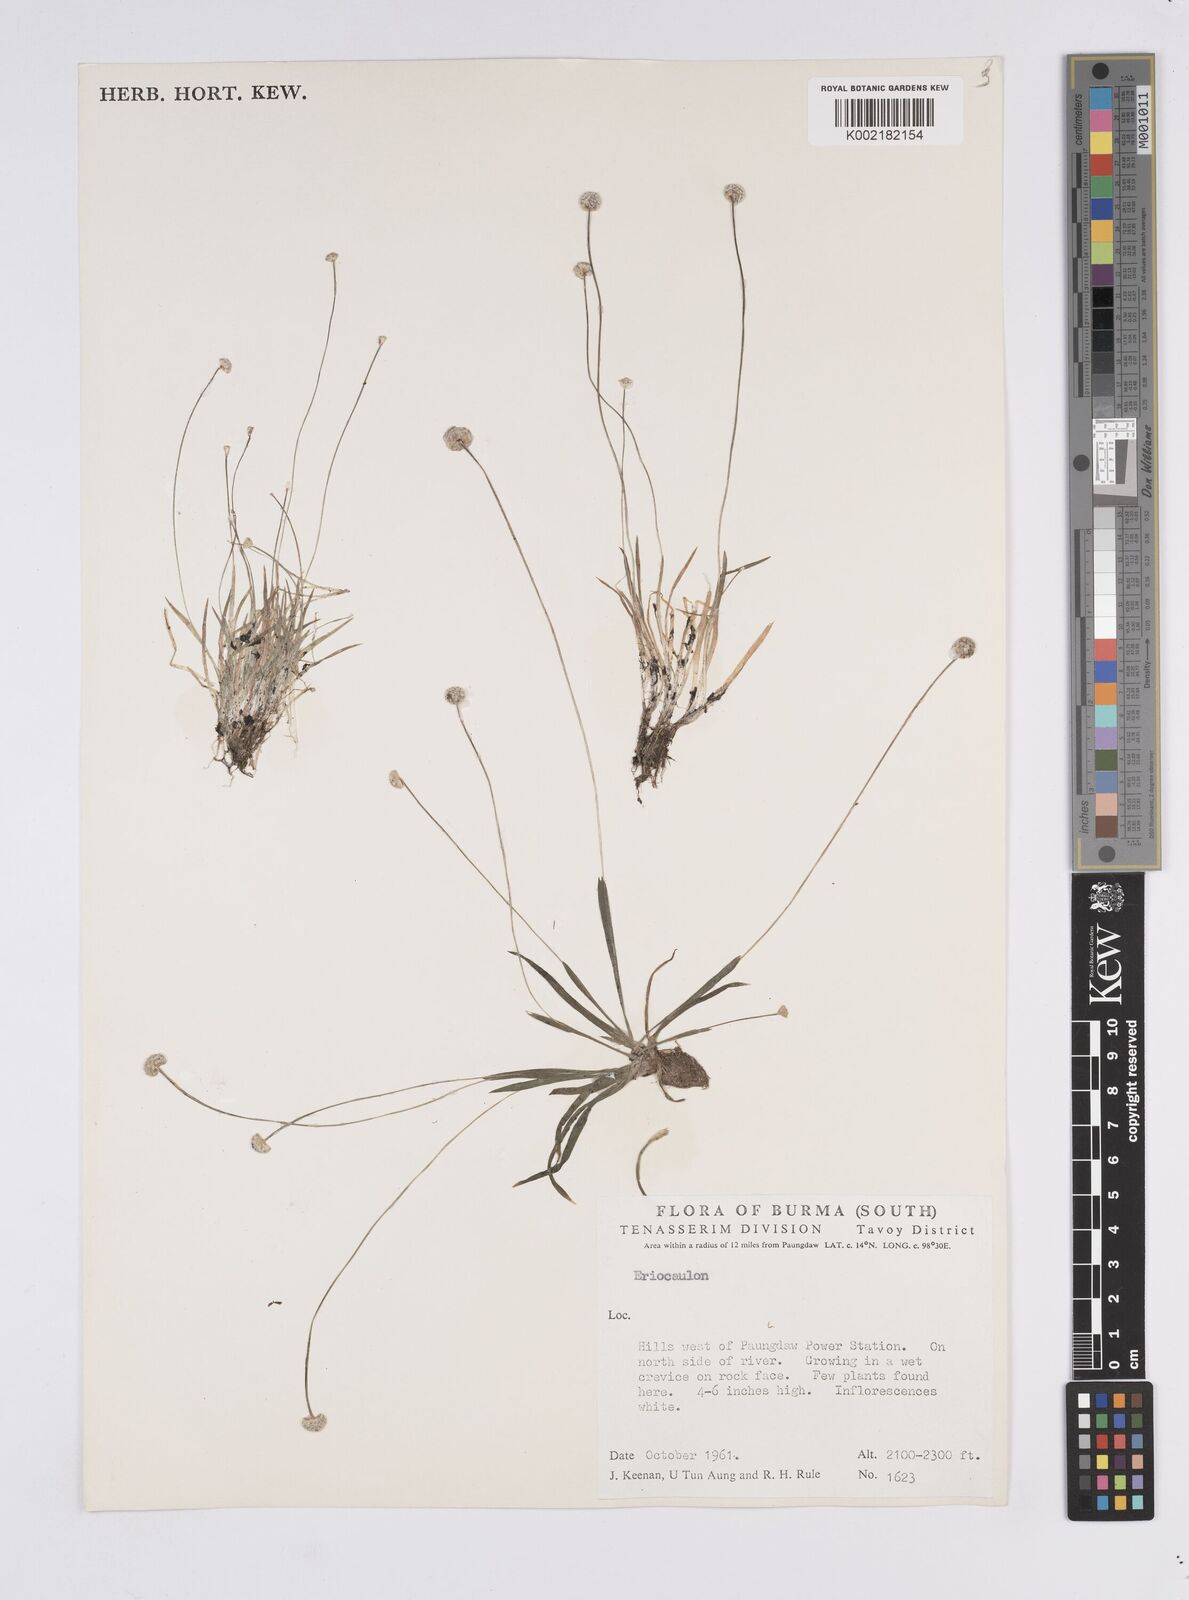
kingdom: Plantae
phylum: Tracheophyta
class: Liliopsida
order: Poales
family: Eriocaulaceae
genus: Eriocaulon
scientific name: Eriocaulon
